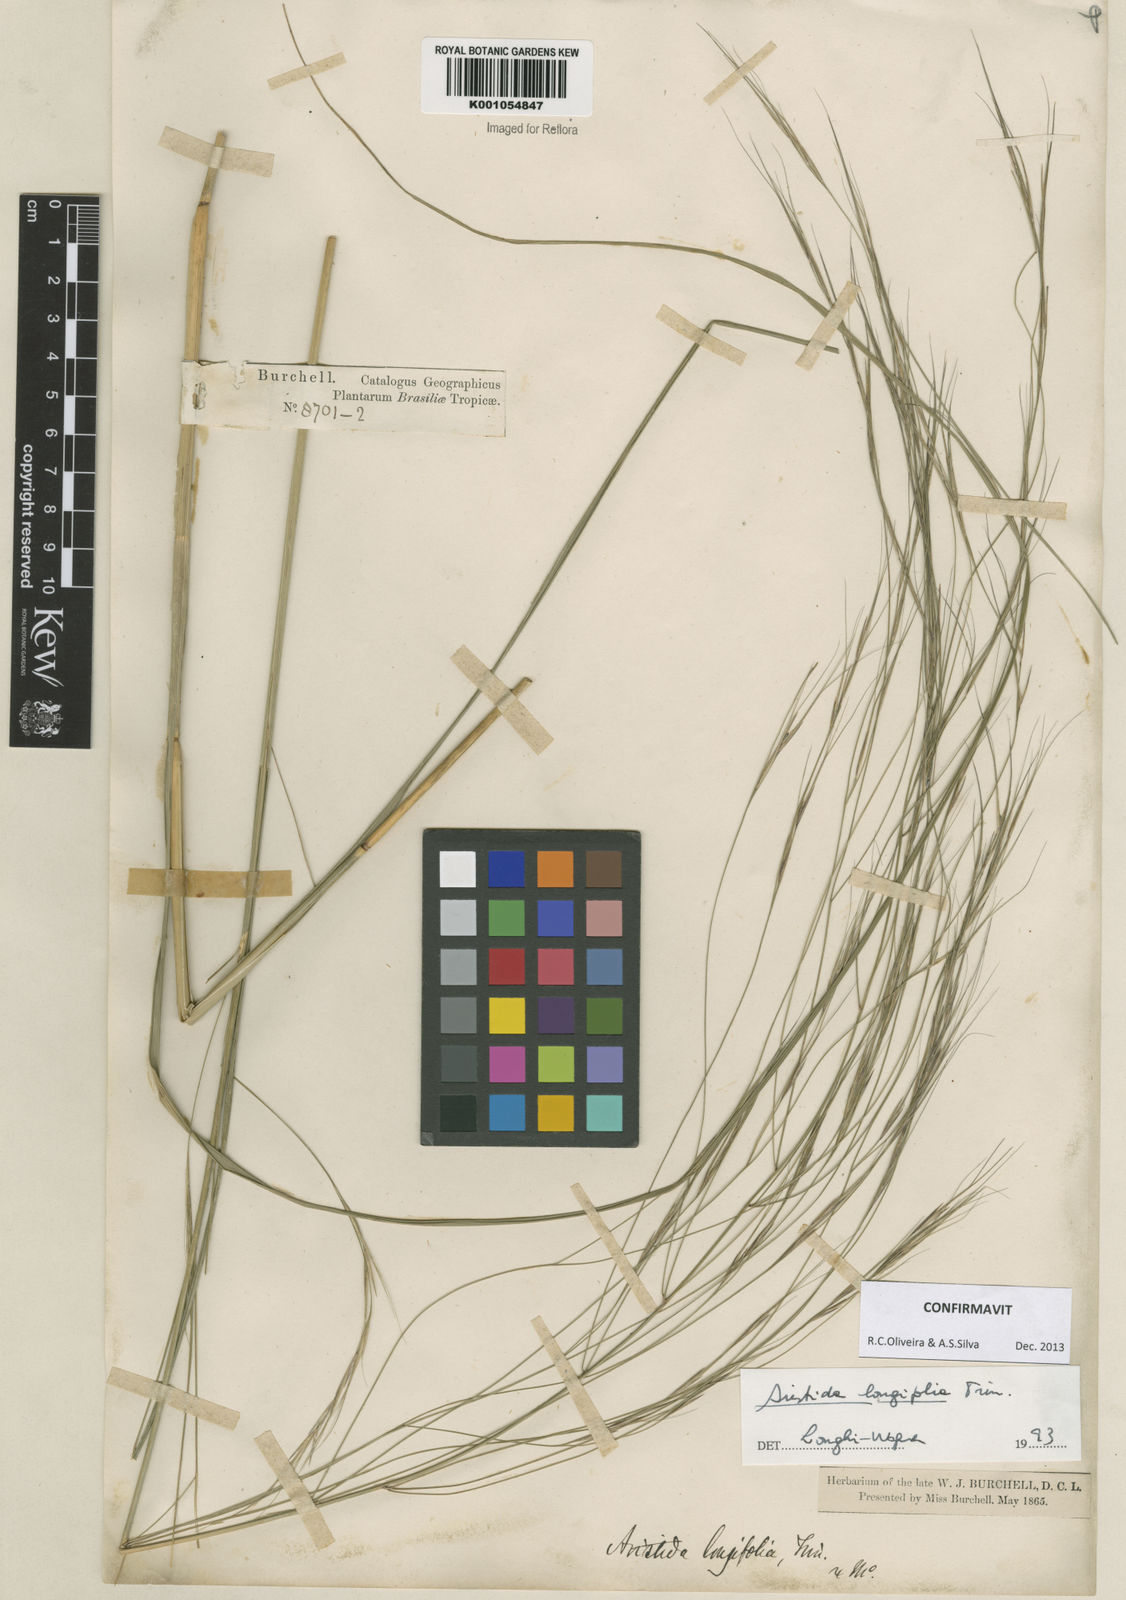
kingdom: Plantae
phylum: Tracheophyta
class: Liliopsida
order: Poales
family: Poaceae
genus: Aristida
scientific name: Aristida longifolia
